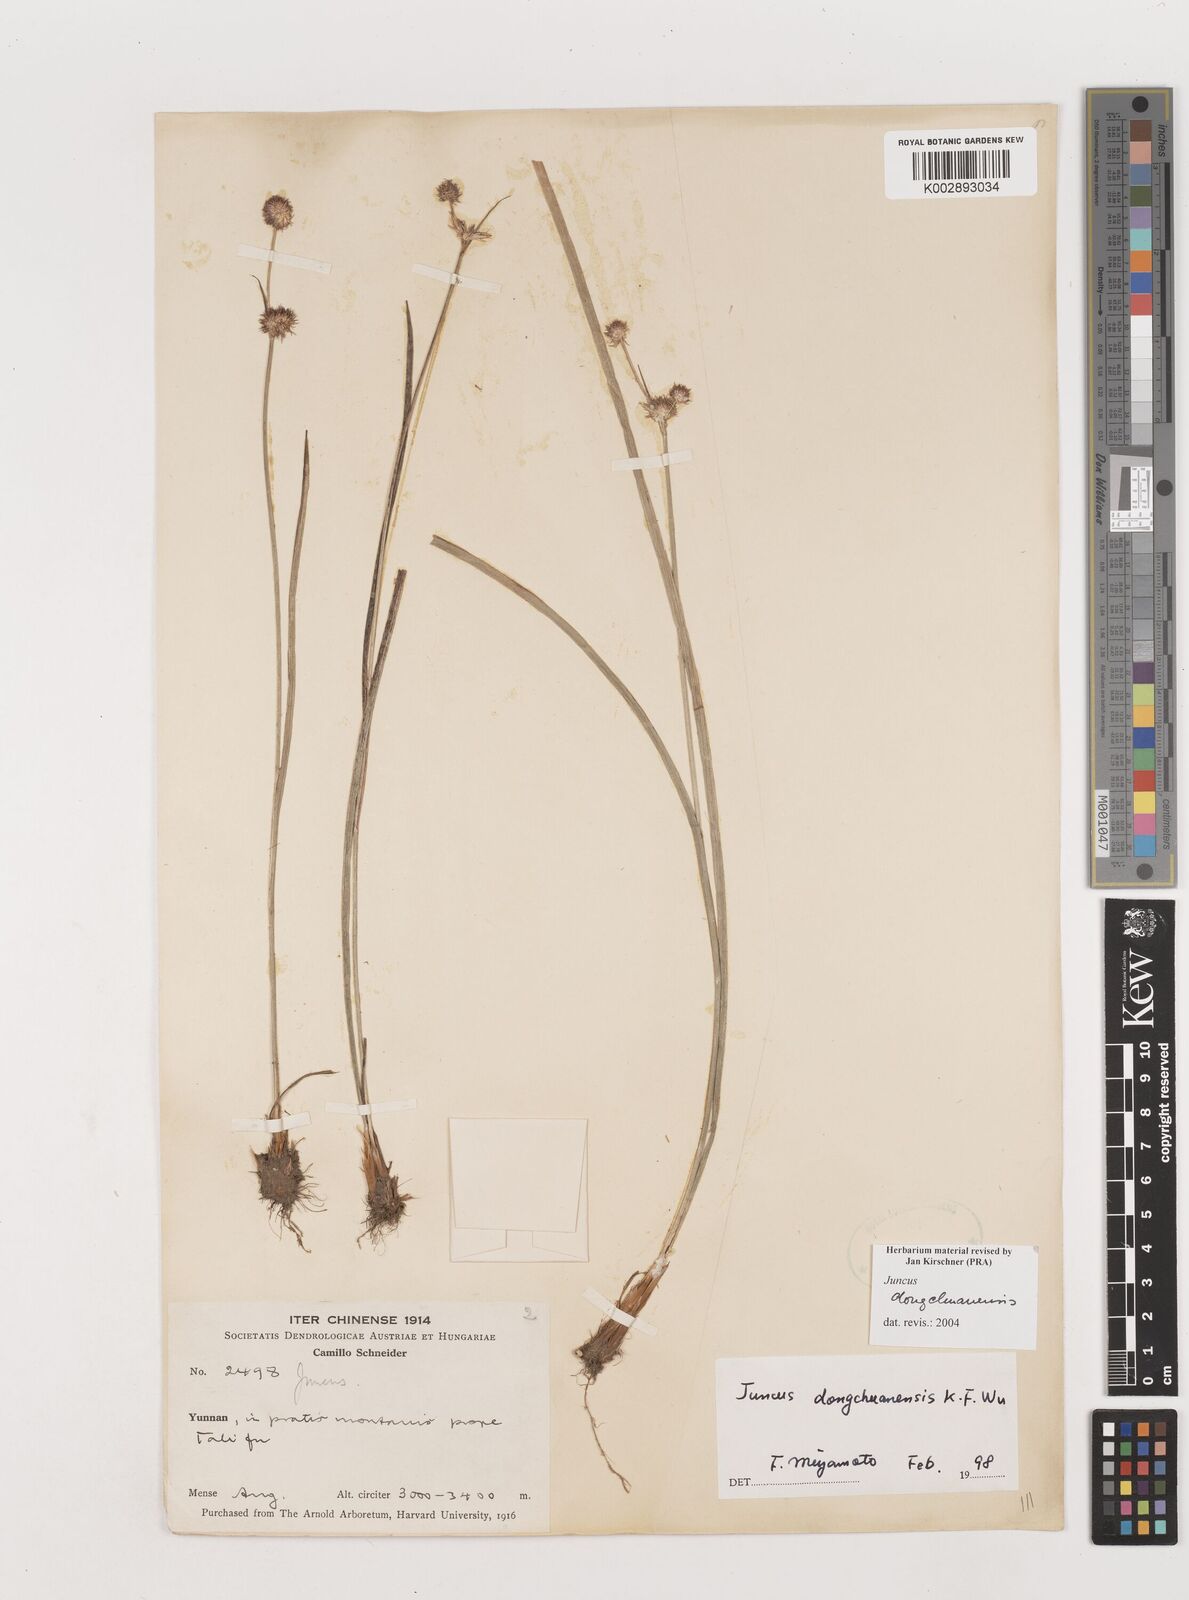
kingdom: Plantae
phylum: Tracheophyta
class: Liliopsida
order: Poales
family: Juncaceae
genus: Juncus
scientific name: Juncus dongchuanensis
